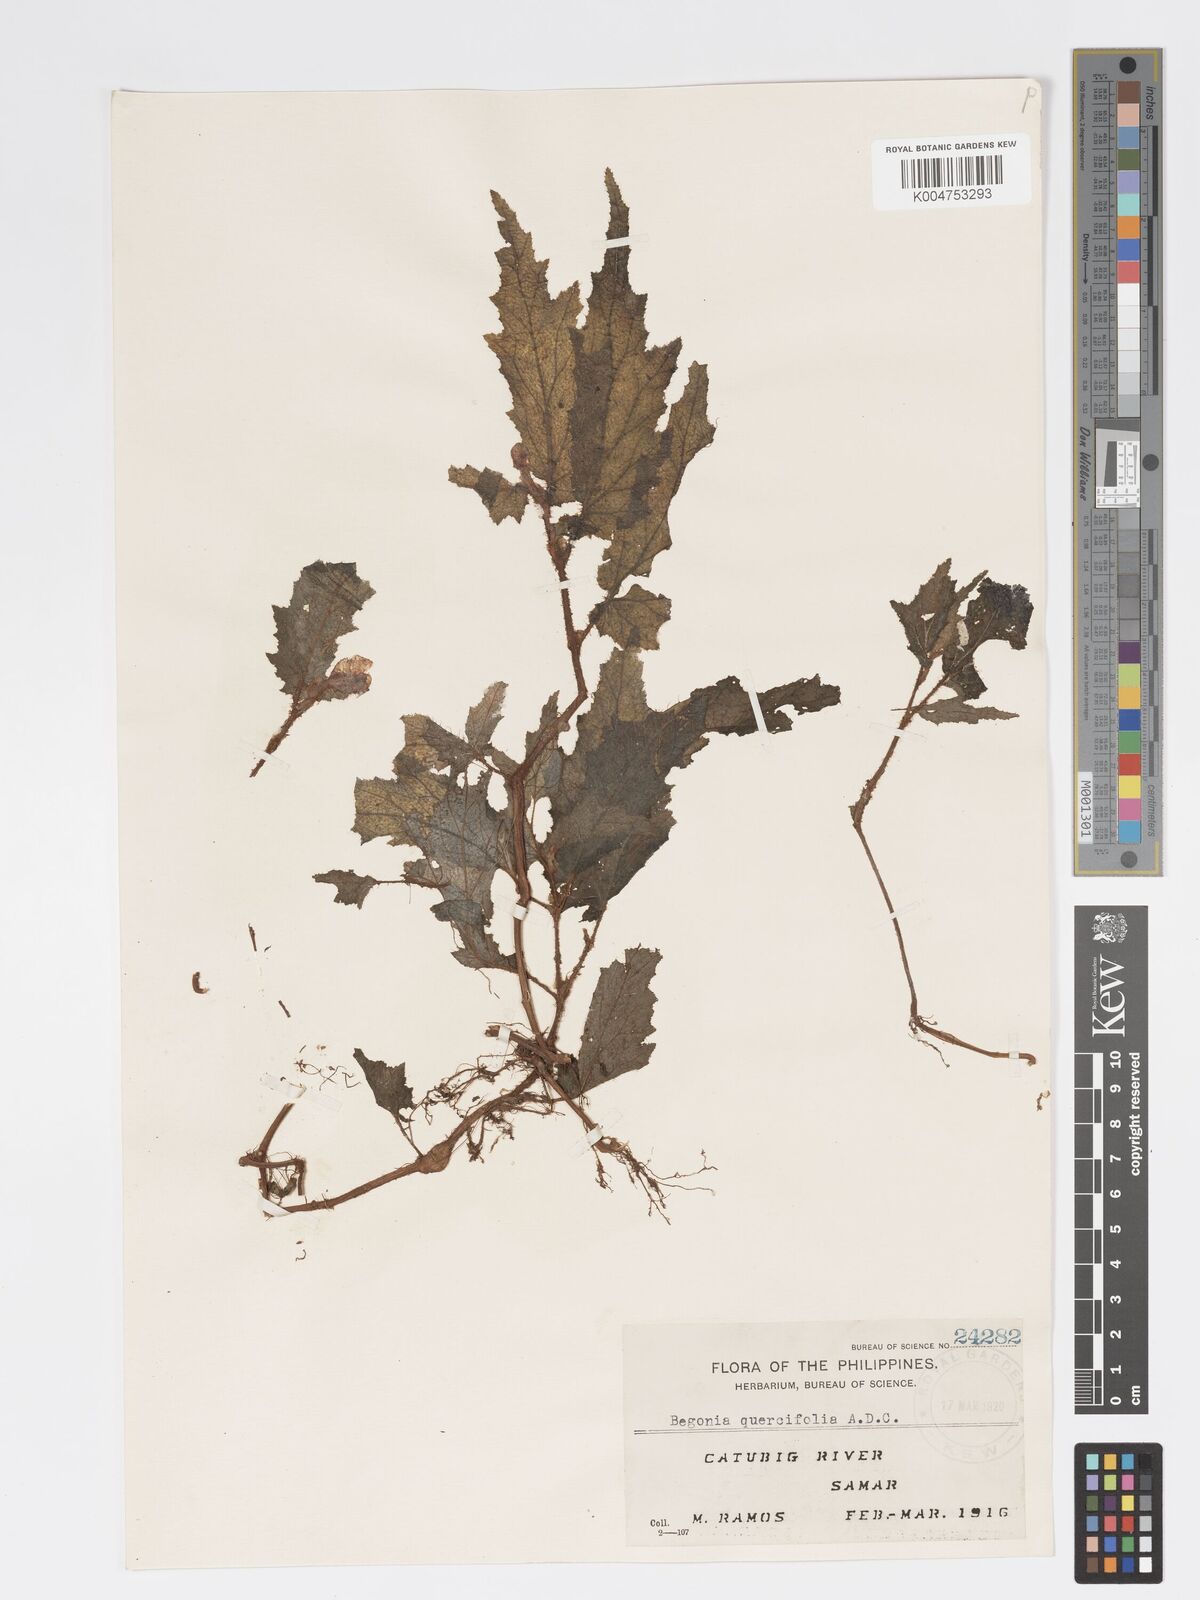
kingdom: Plantae
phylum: Tracheophyta
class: Magnoliopsida
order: Cucurbitales
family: Begoniaceae
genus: Begonia
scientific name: Begonia quercifolia
